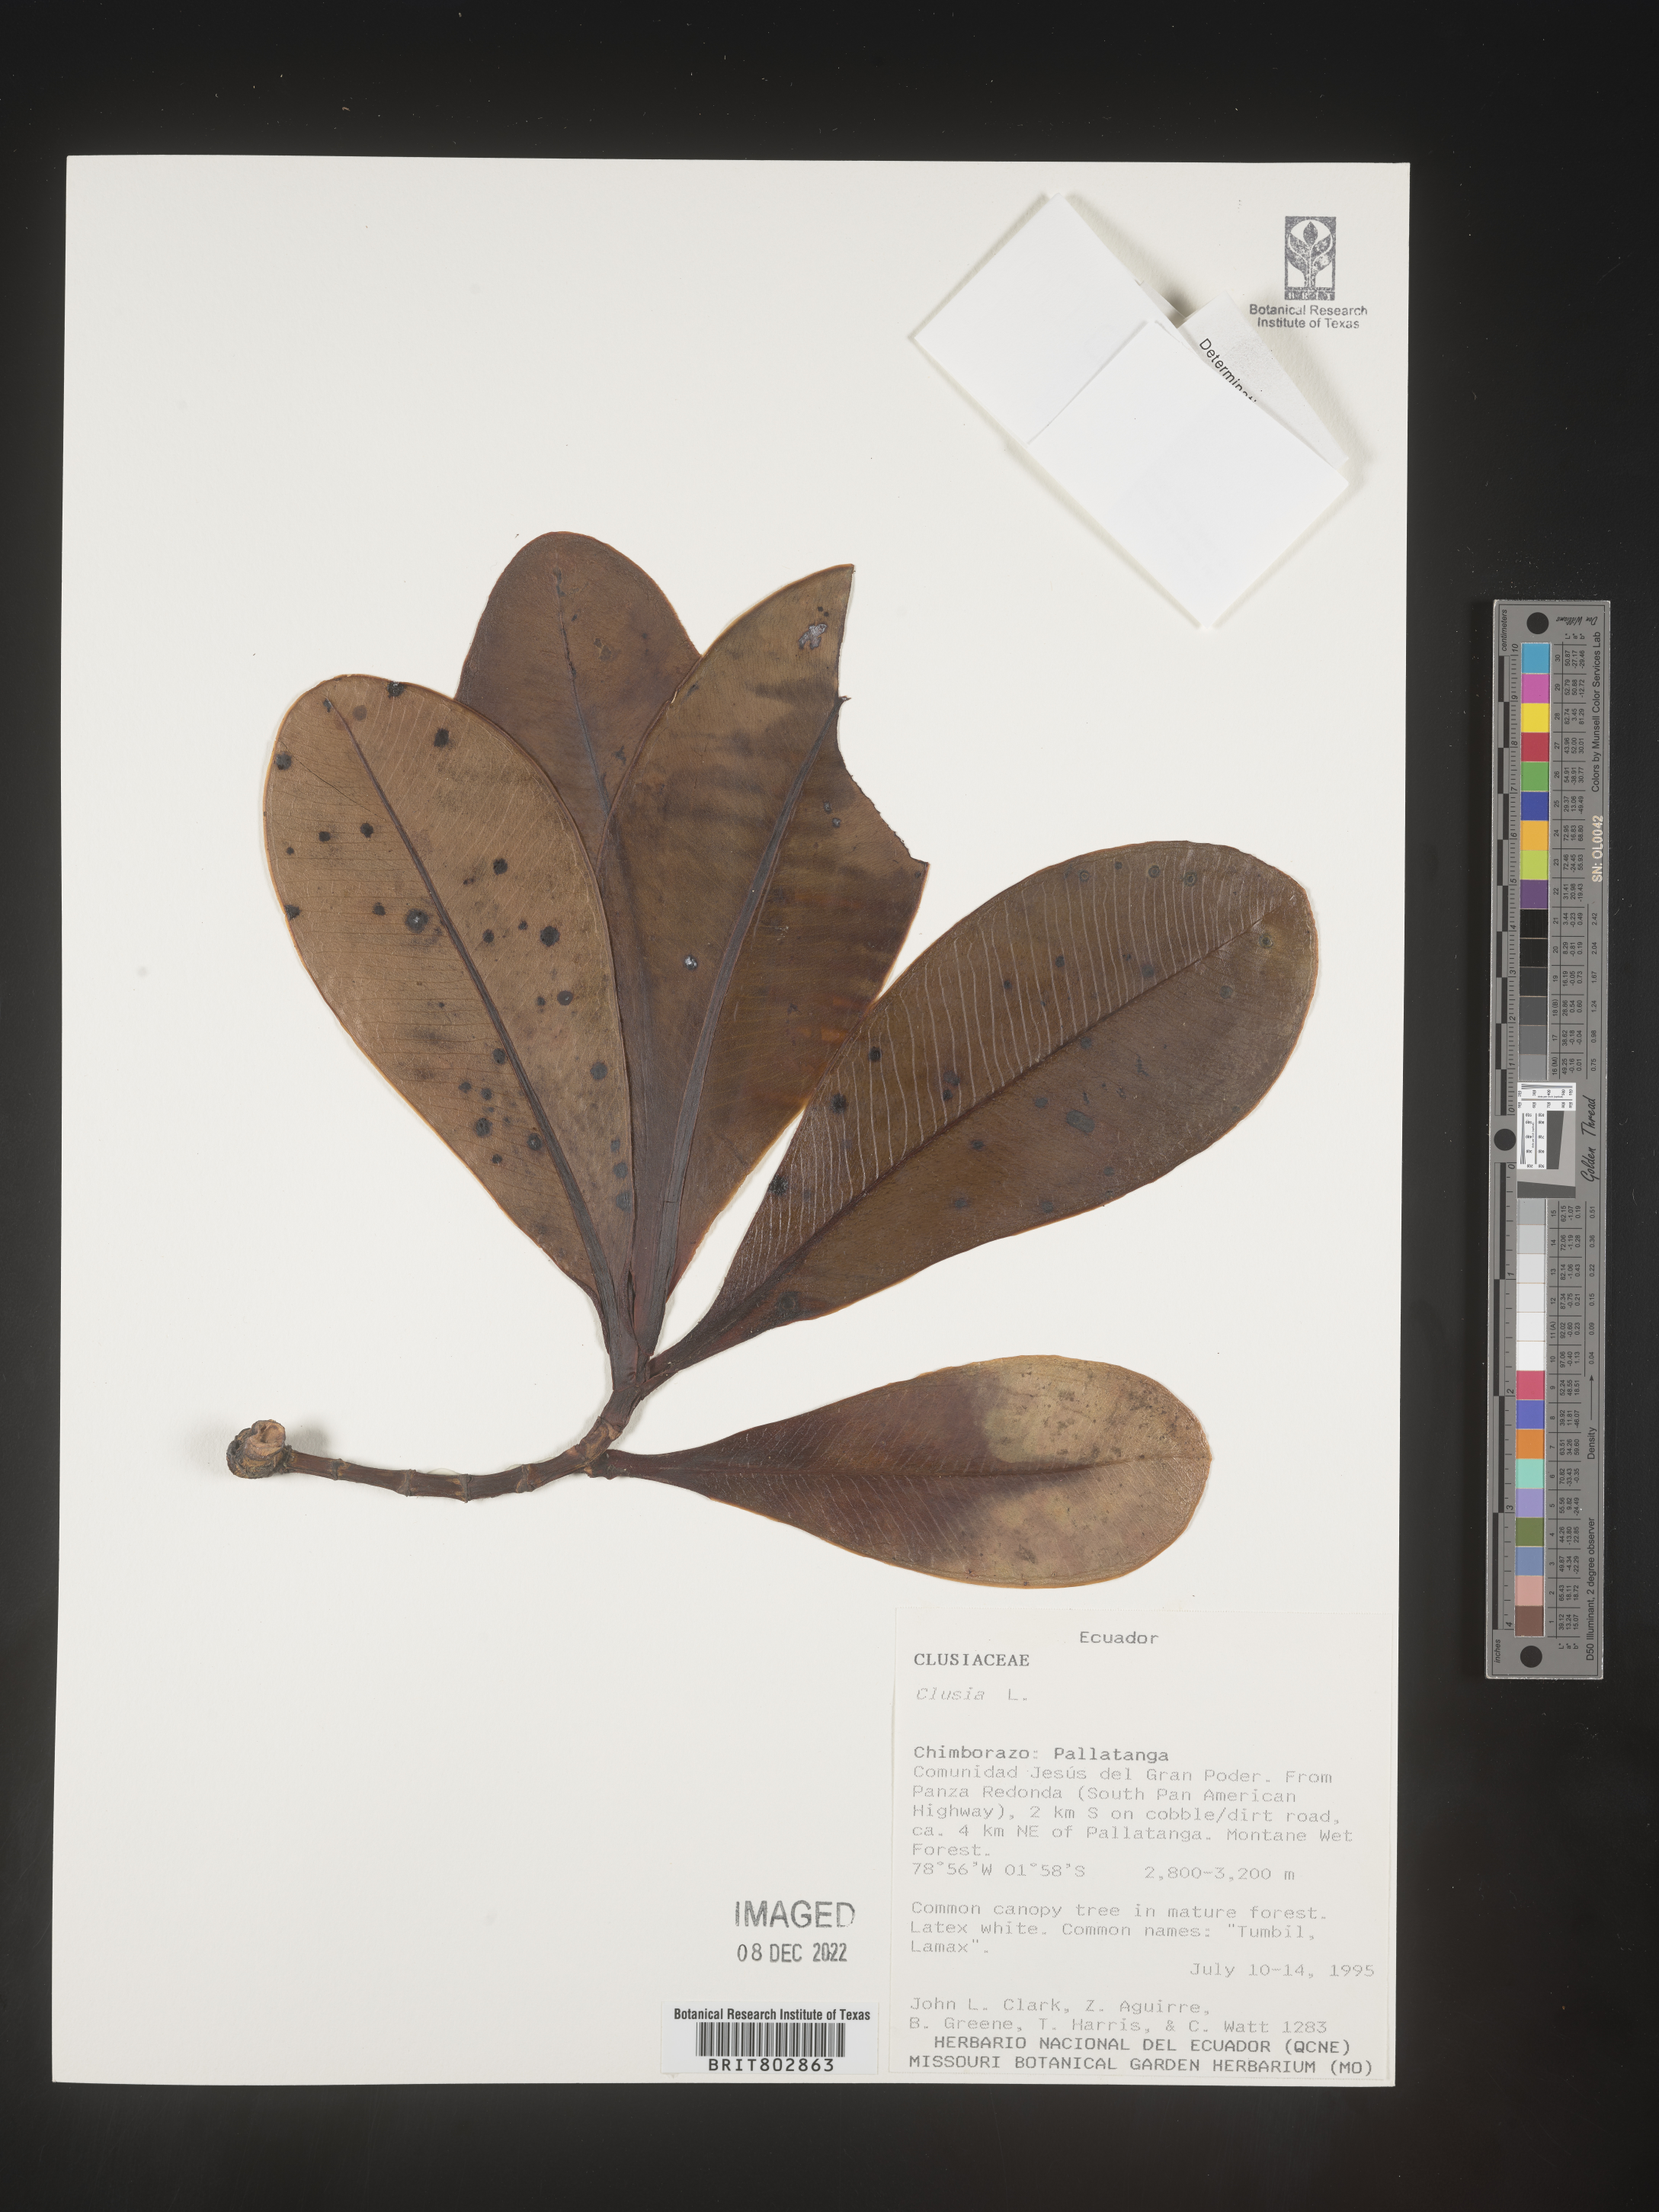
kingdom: Plantae
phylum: Tracheophyta
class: Magnoliopsida
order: Malpighiales
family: Clusiaceae
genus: Clusia
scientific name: Clusia
